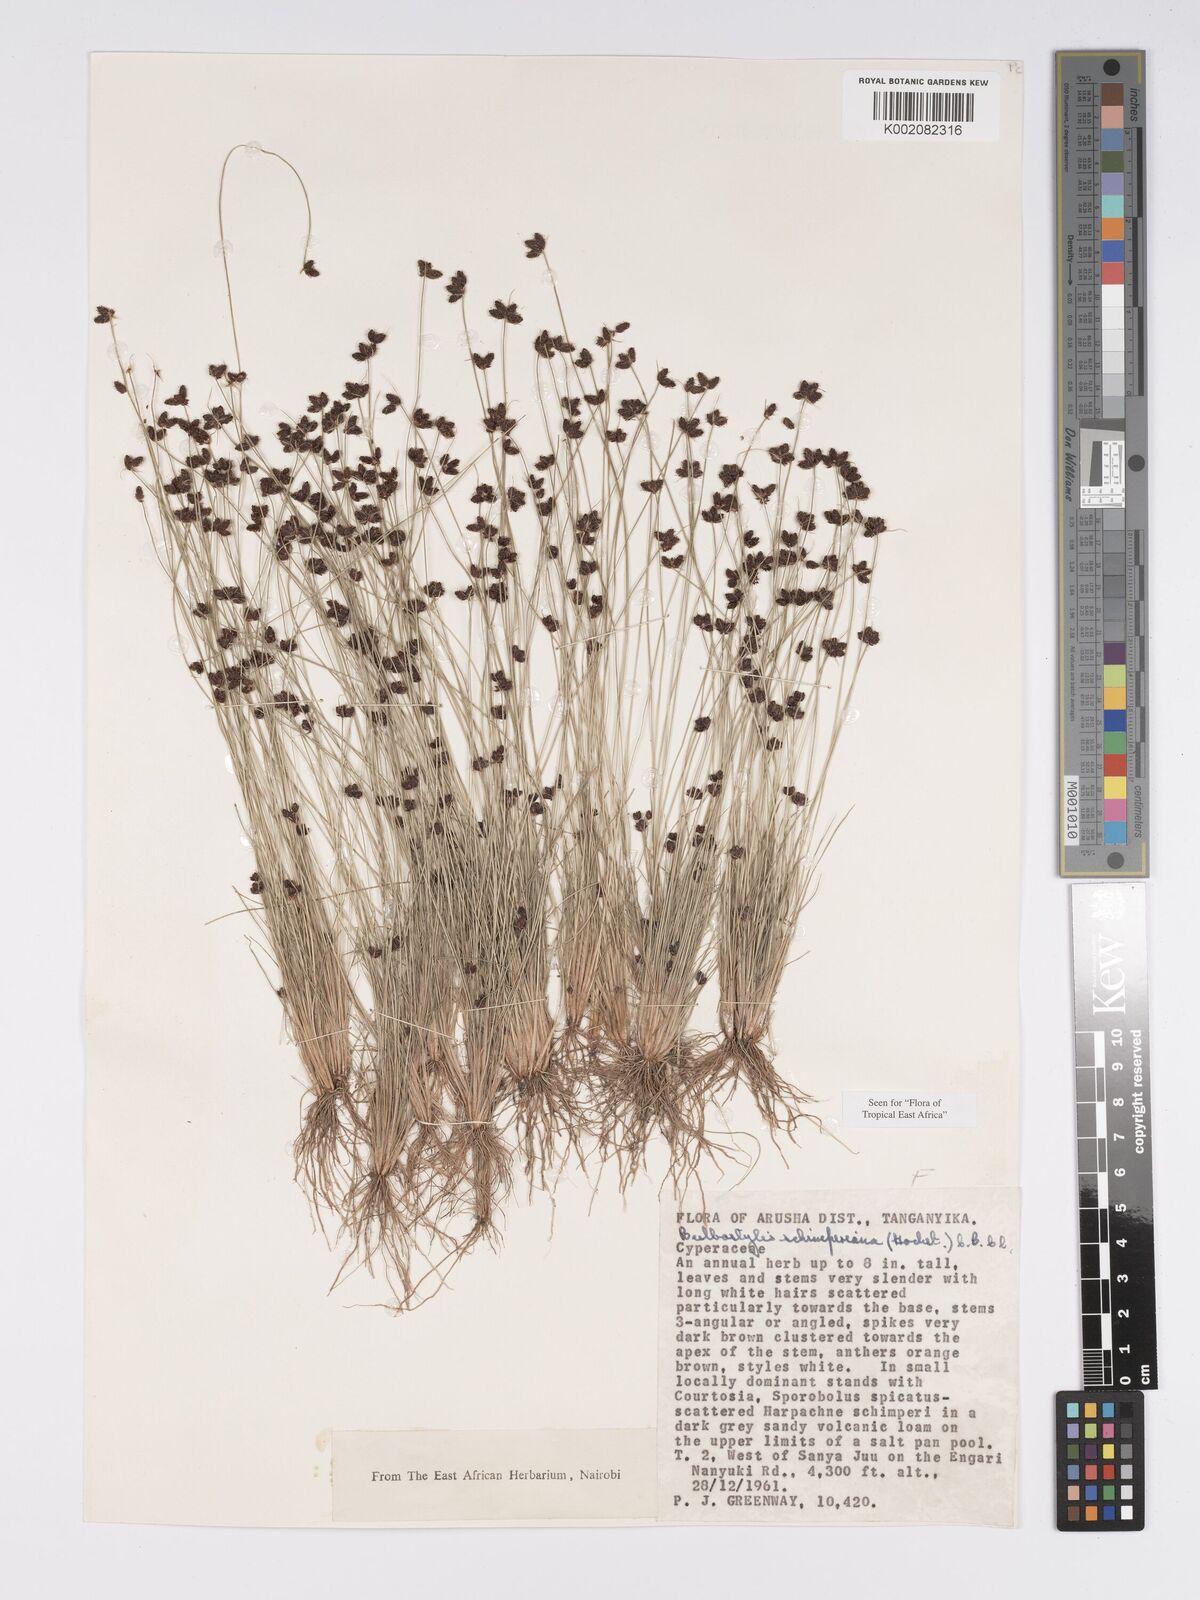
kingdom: Plantae
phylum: Tracheophyta
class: Liliopsida
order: Poales
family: Cyperaceae
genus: Bulbostylis
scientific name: Bulbostylis schimperiana
